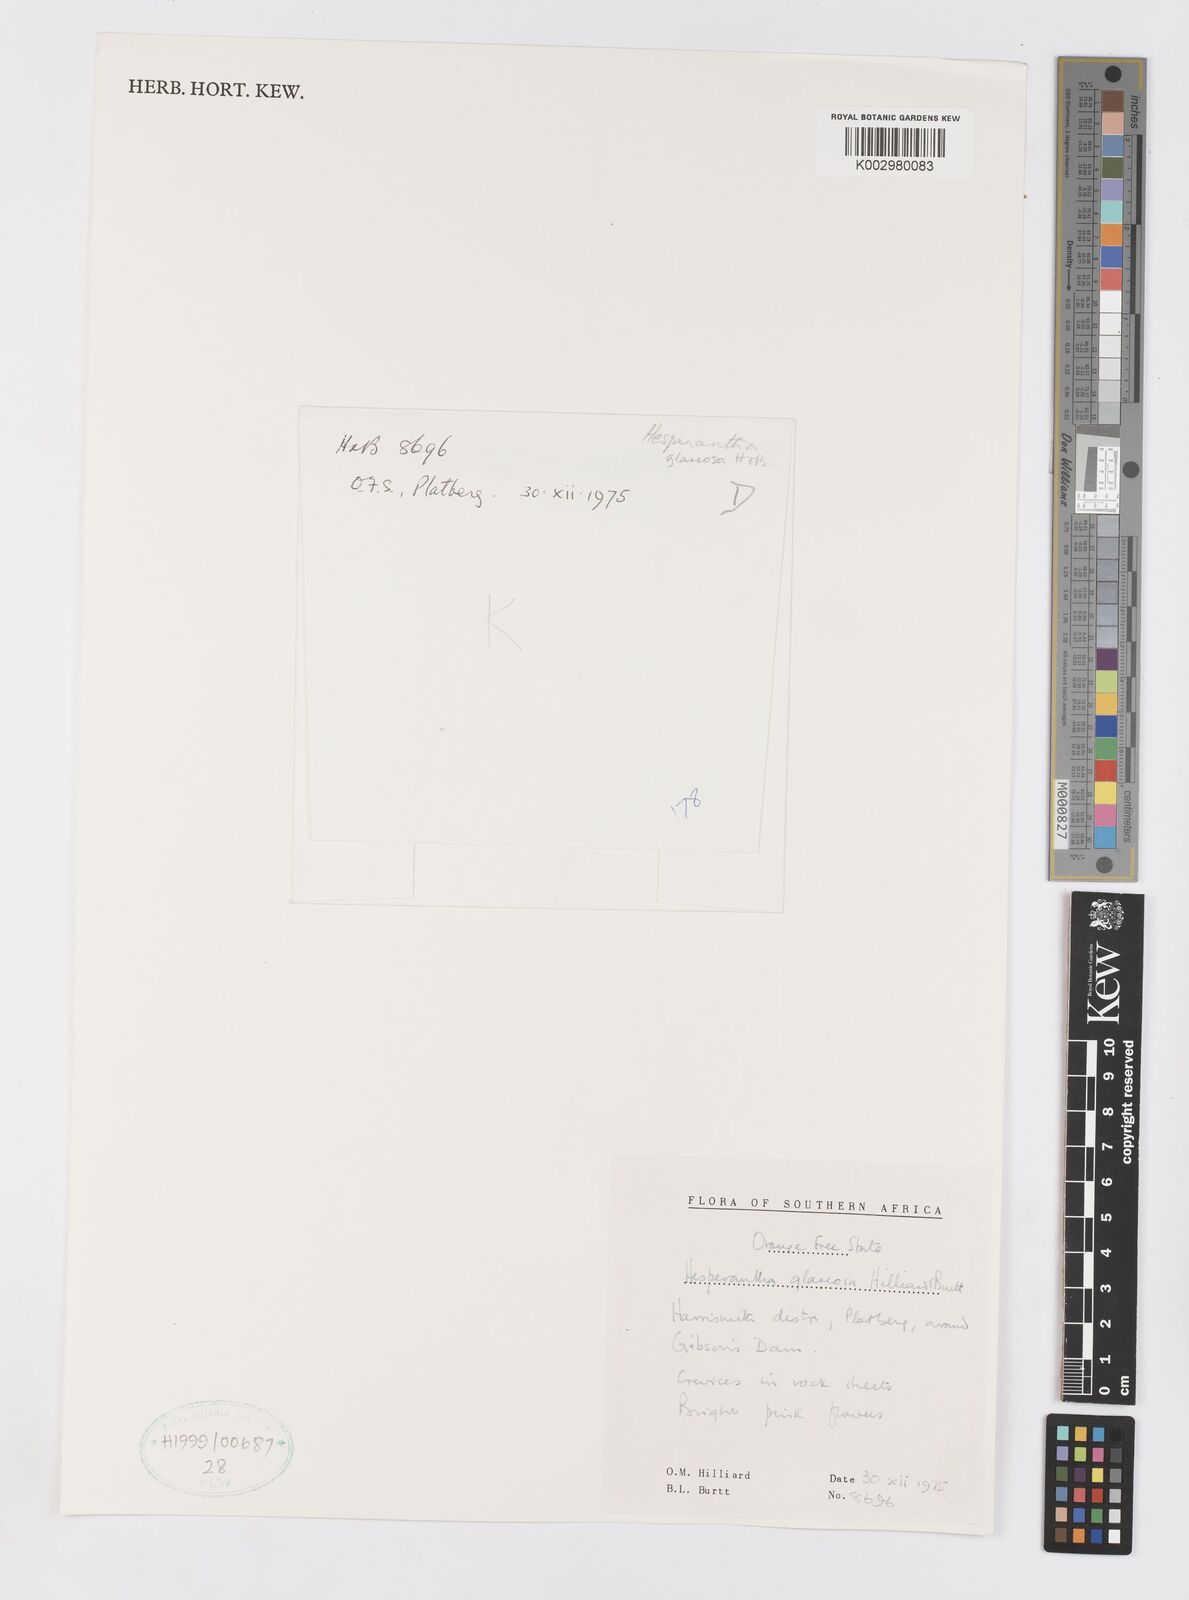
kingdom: Plantae
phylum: Tracheophyta
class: Liliopsida
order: Asparagales
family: Iridaceae
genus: Hesperantha
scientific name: Hesperantha glareosa
